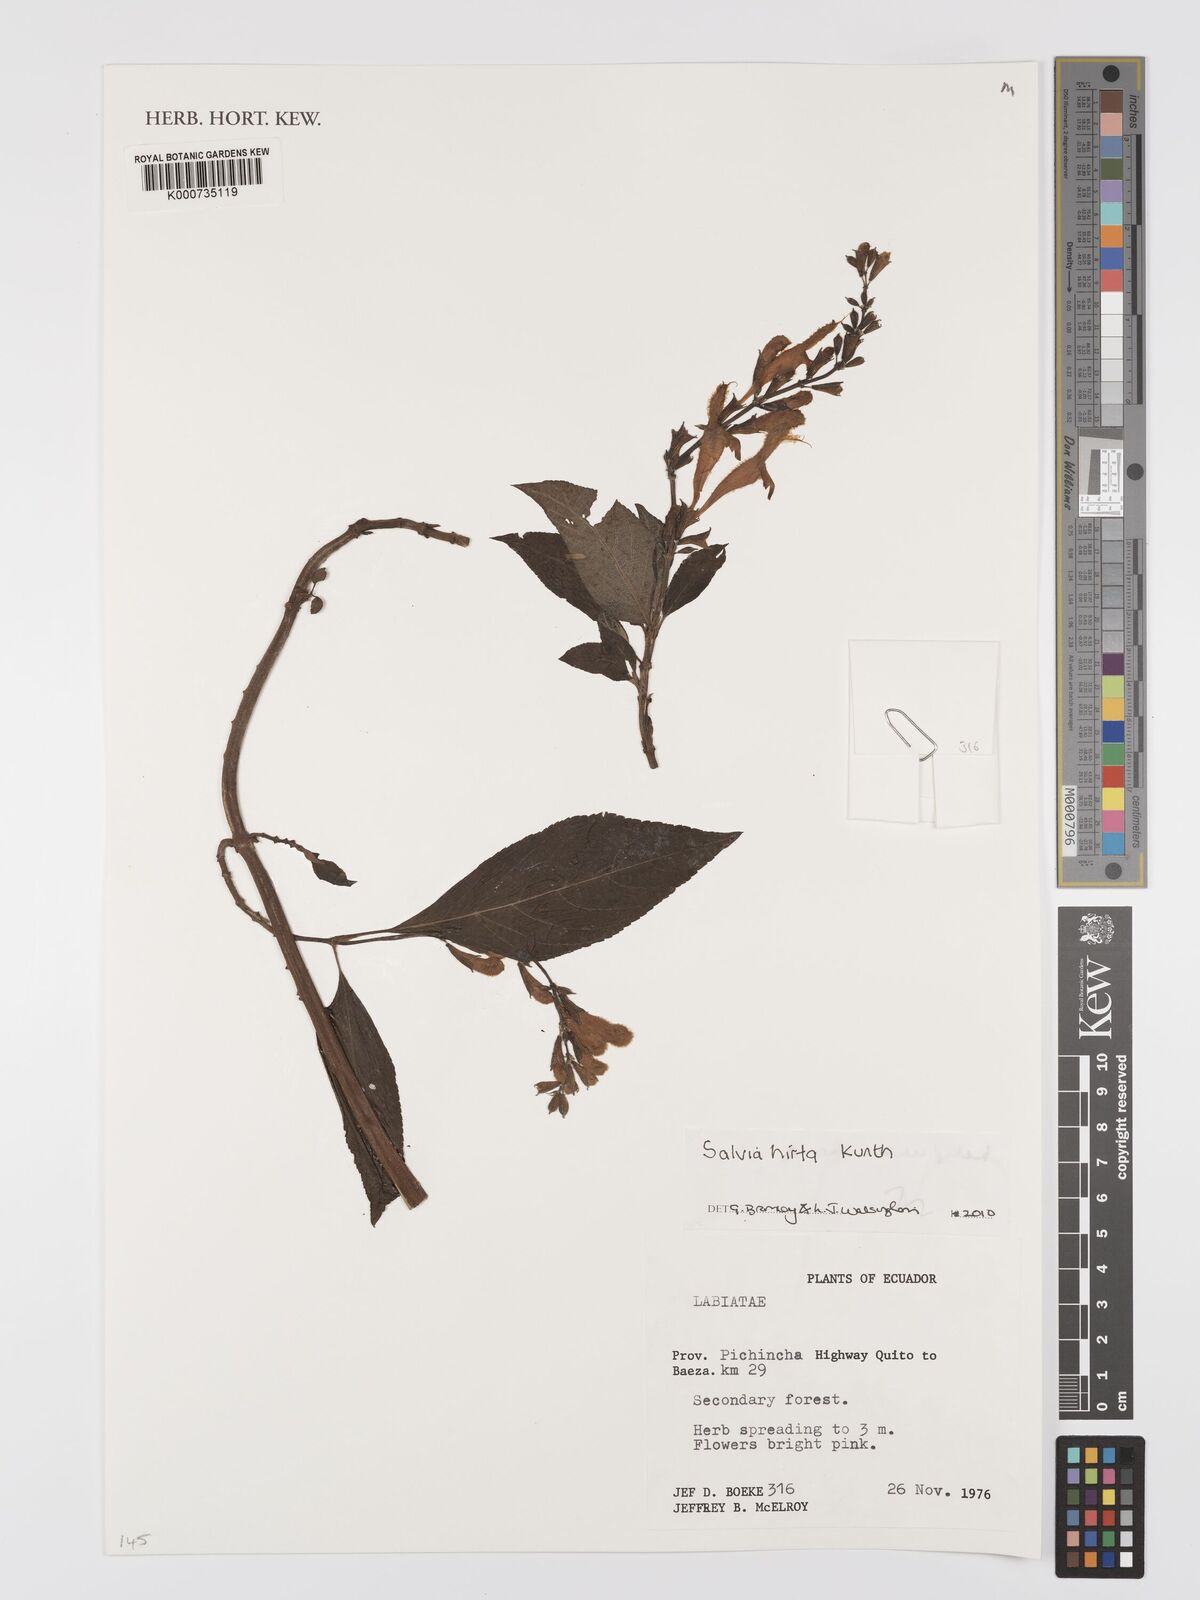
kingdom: Plantae
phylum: Tracheophyta
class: Magnoliopsida
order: Lamiales
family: Lamiaceae
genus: Salvia
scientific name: Salvia hirta
